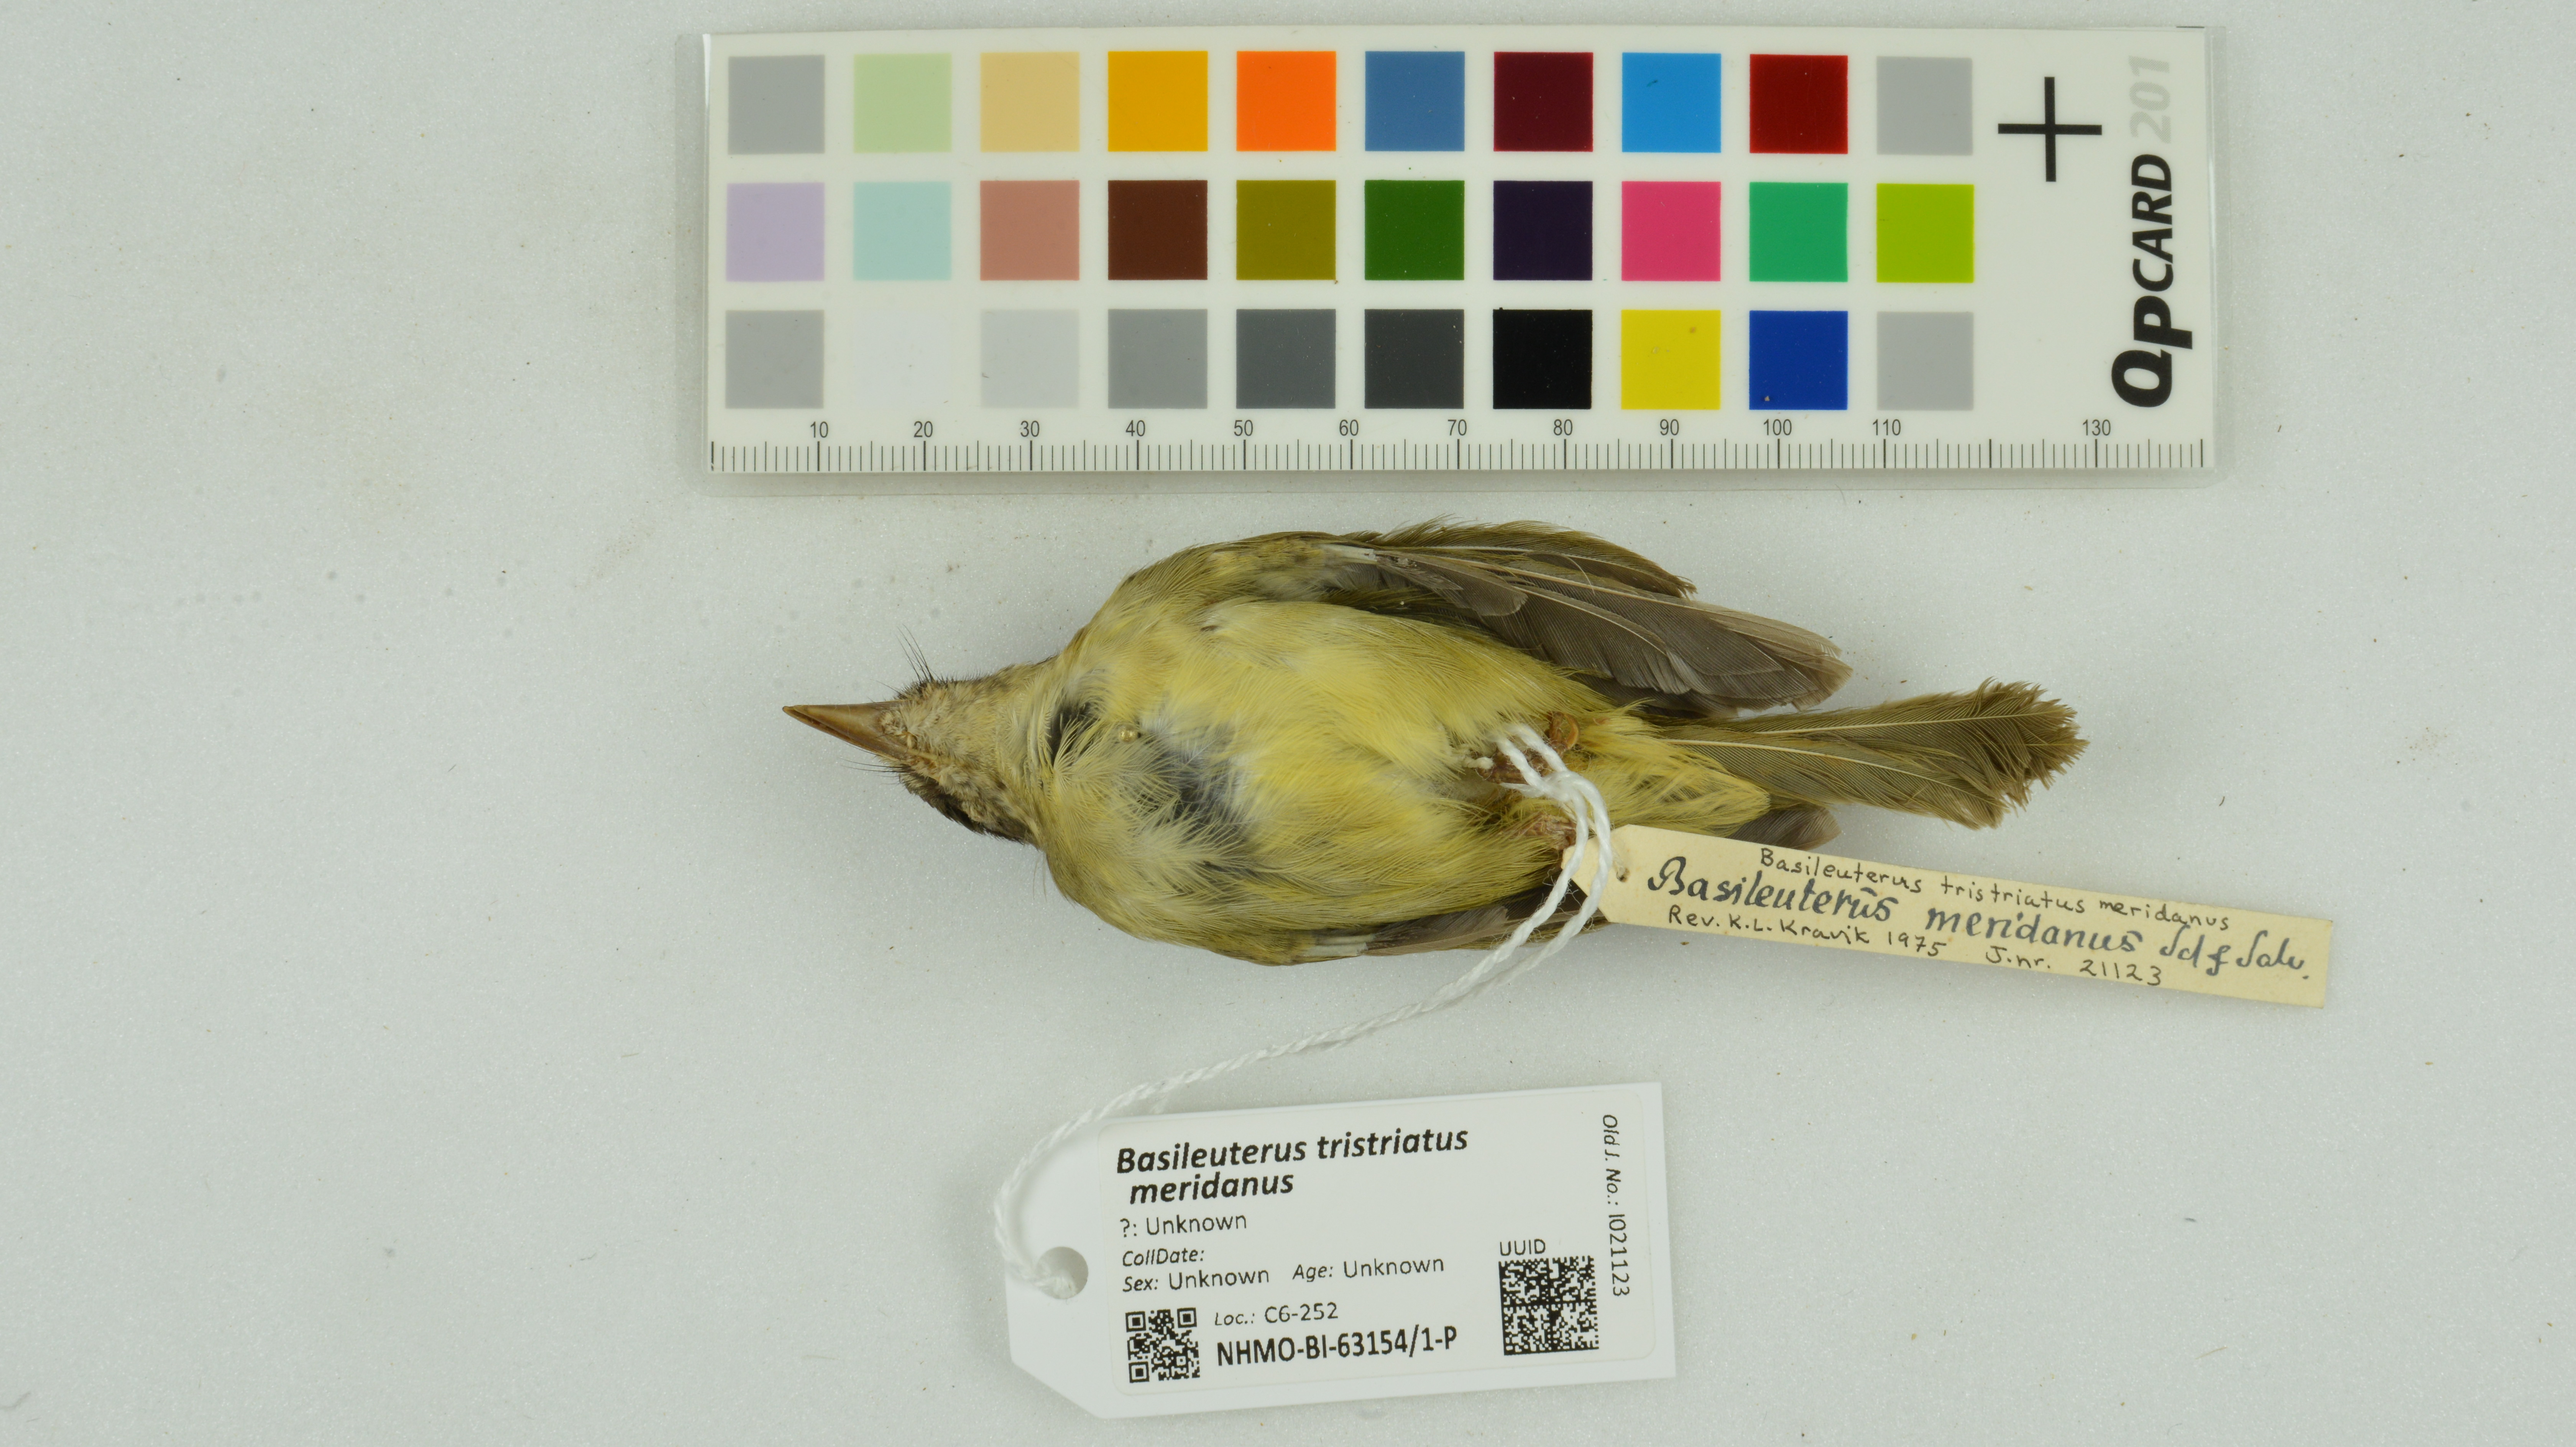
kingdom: Animalia
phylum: Chordata
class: Aves
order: Passeriformes
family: Parulidae
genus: Basileuterus
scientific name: Basileuterus tristriatus
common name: Three-striped warbler
